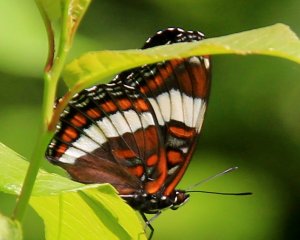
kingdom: Animalia
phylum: Arthropoda
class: Insecta
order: Lepidoptera
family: Nymphalidae
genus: Limenitis
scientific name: Limenitis arthemis
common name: Red-spotted Admiral
